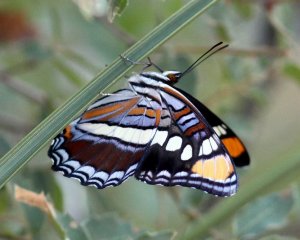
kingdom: Animalia
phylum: Arthropoda
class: Insecta
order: Lepidoptera
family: Nymphalidae
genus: Limenitis
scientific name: Limenitis bredowii
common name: Arizona Sister
